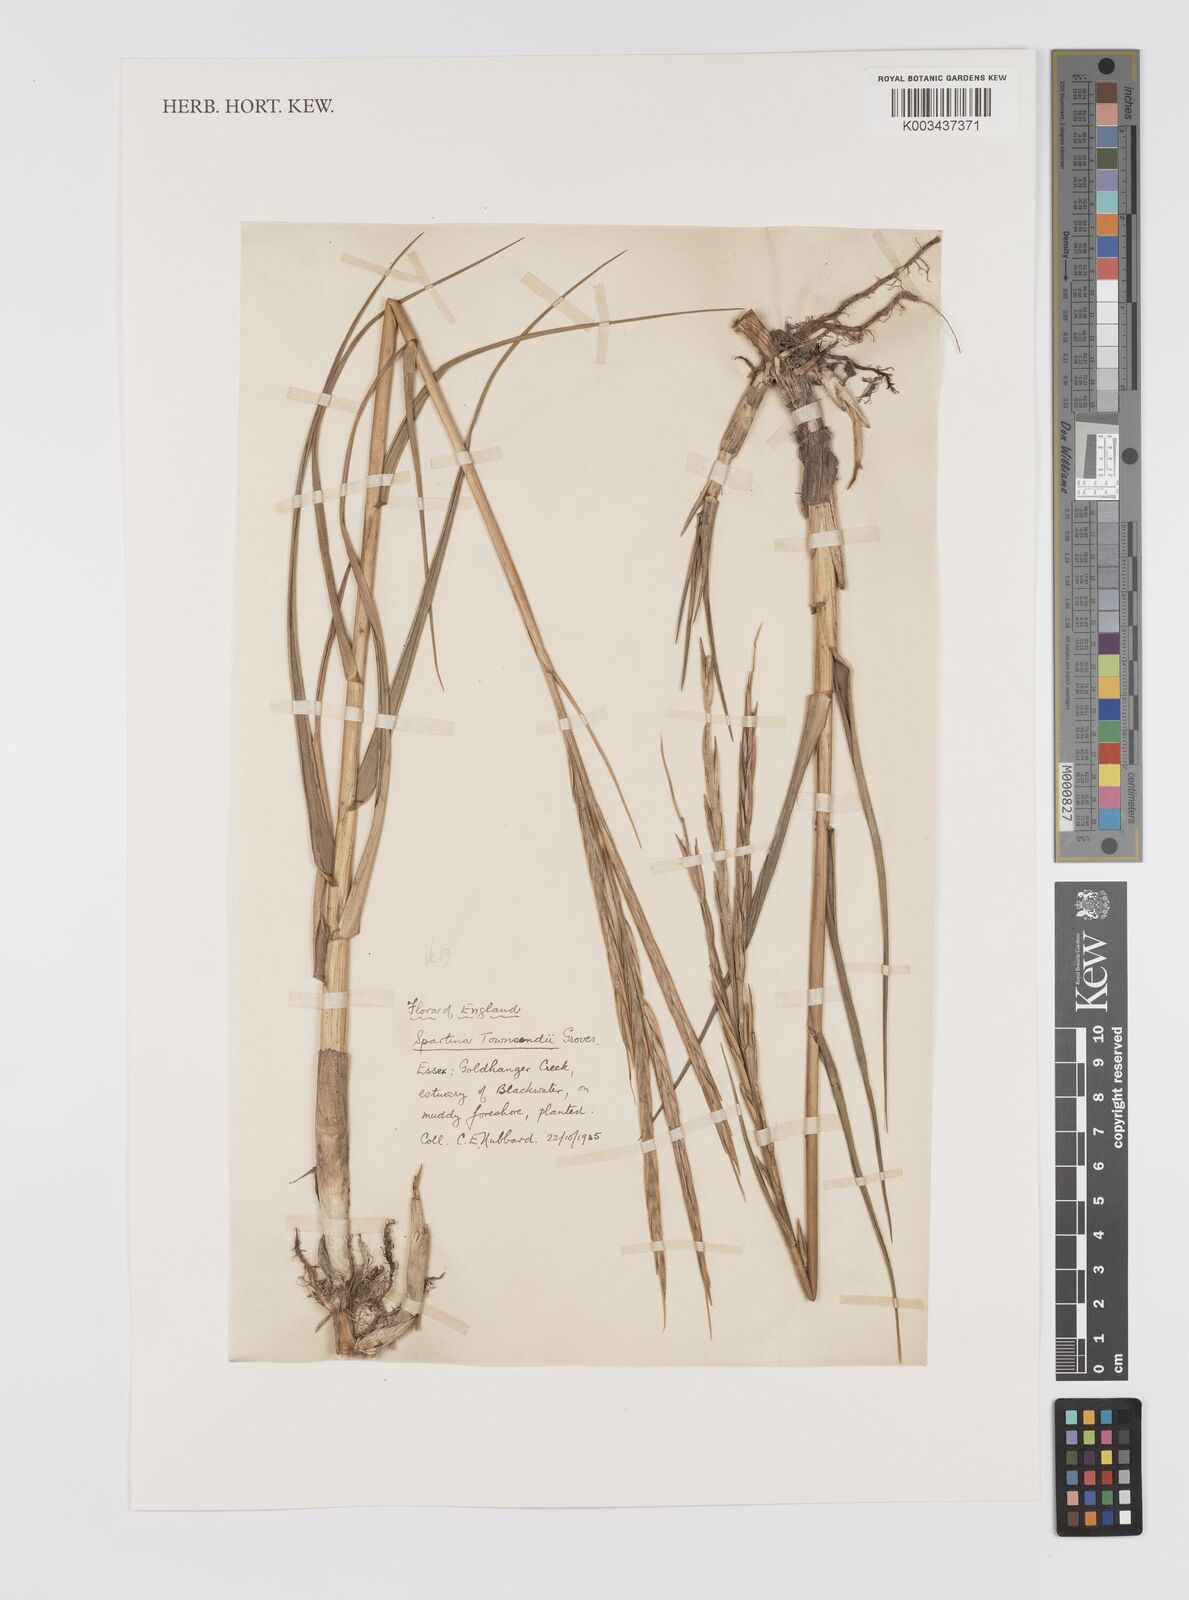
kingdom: Plantae
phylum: Tracheophyta
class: Liliopsida
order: Poales
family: Poaceae
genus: Sporobolus
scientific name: Sporobolus townsendii
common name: Townsend's cordgrass
